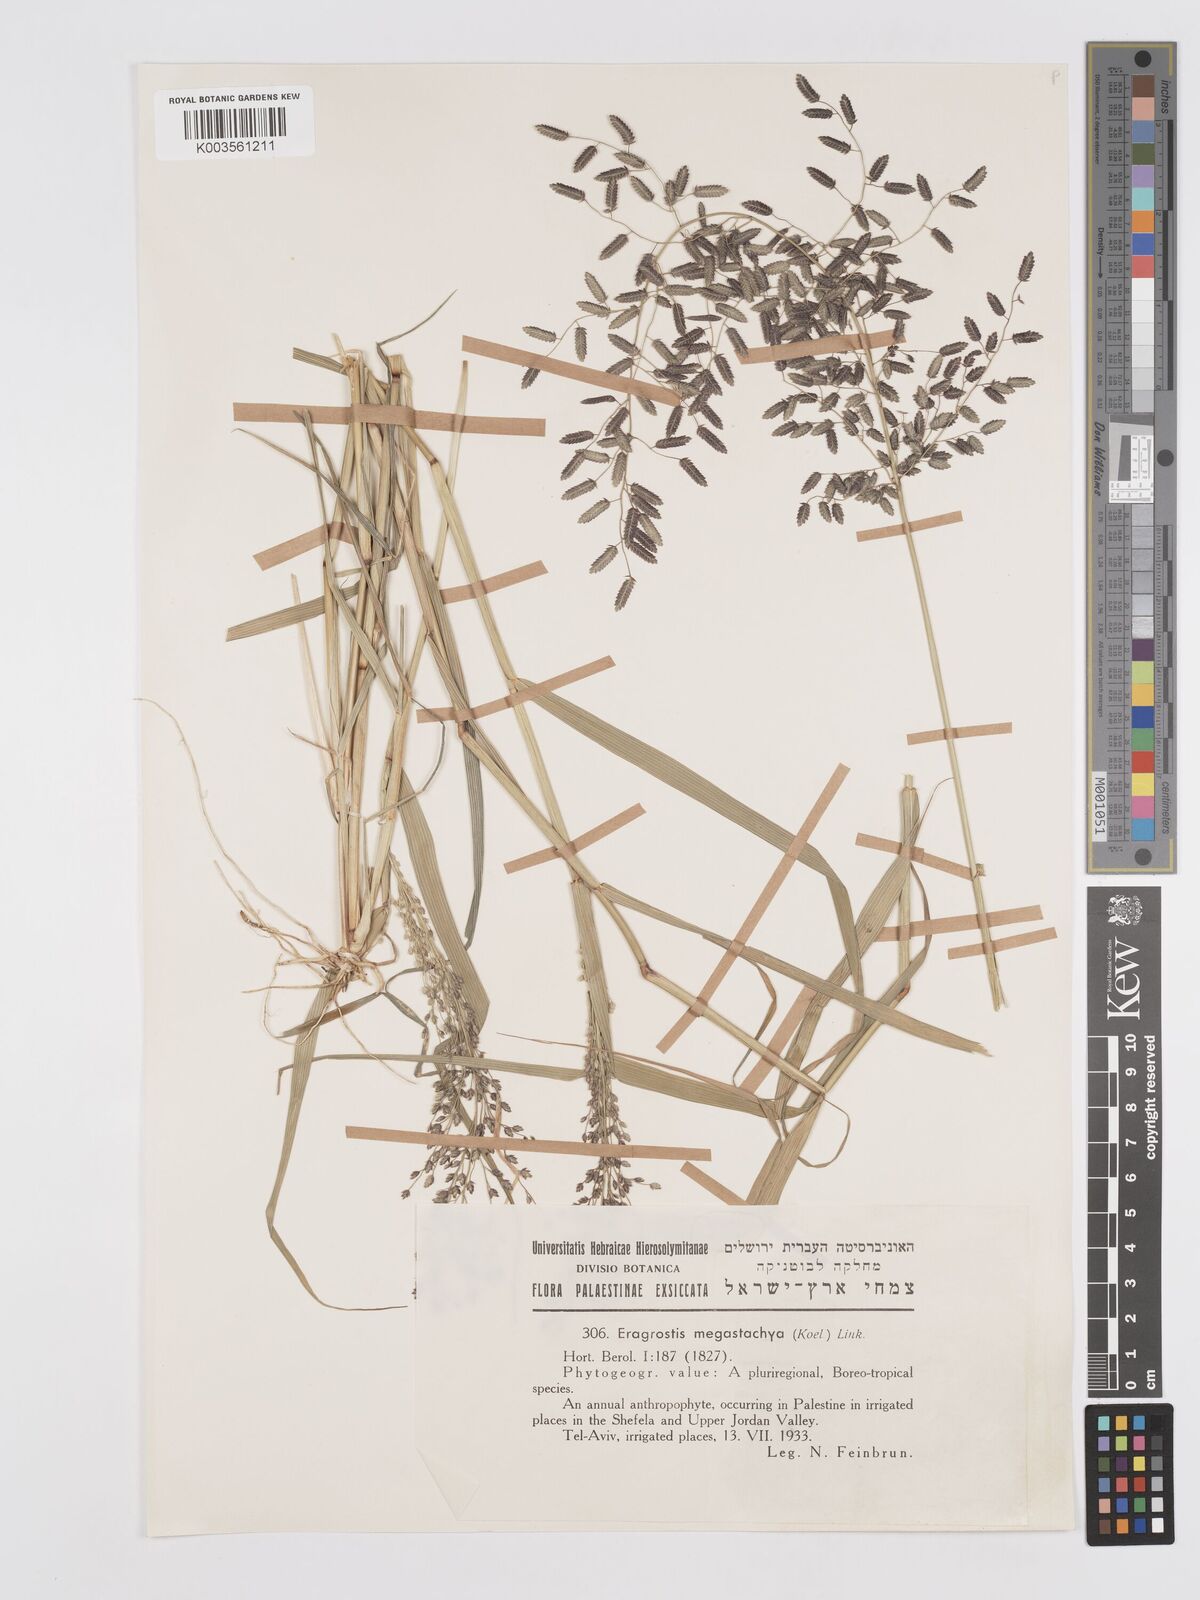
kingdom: Plantae
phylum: Tracheophyta
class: Liliopsida
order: Poales
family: Poaceae
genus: Eragrostis
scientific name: Eragrostis cilianensis
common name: Stinkgrass
